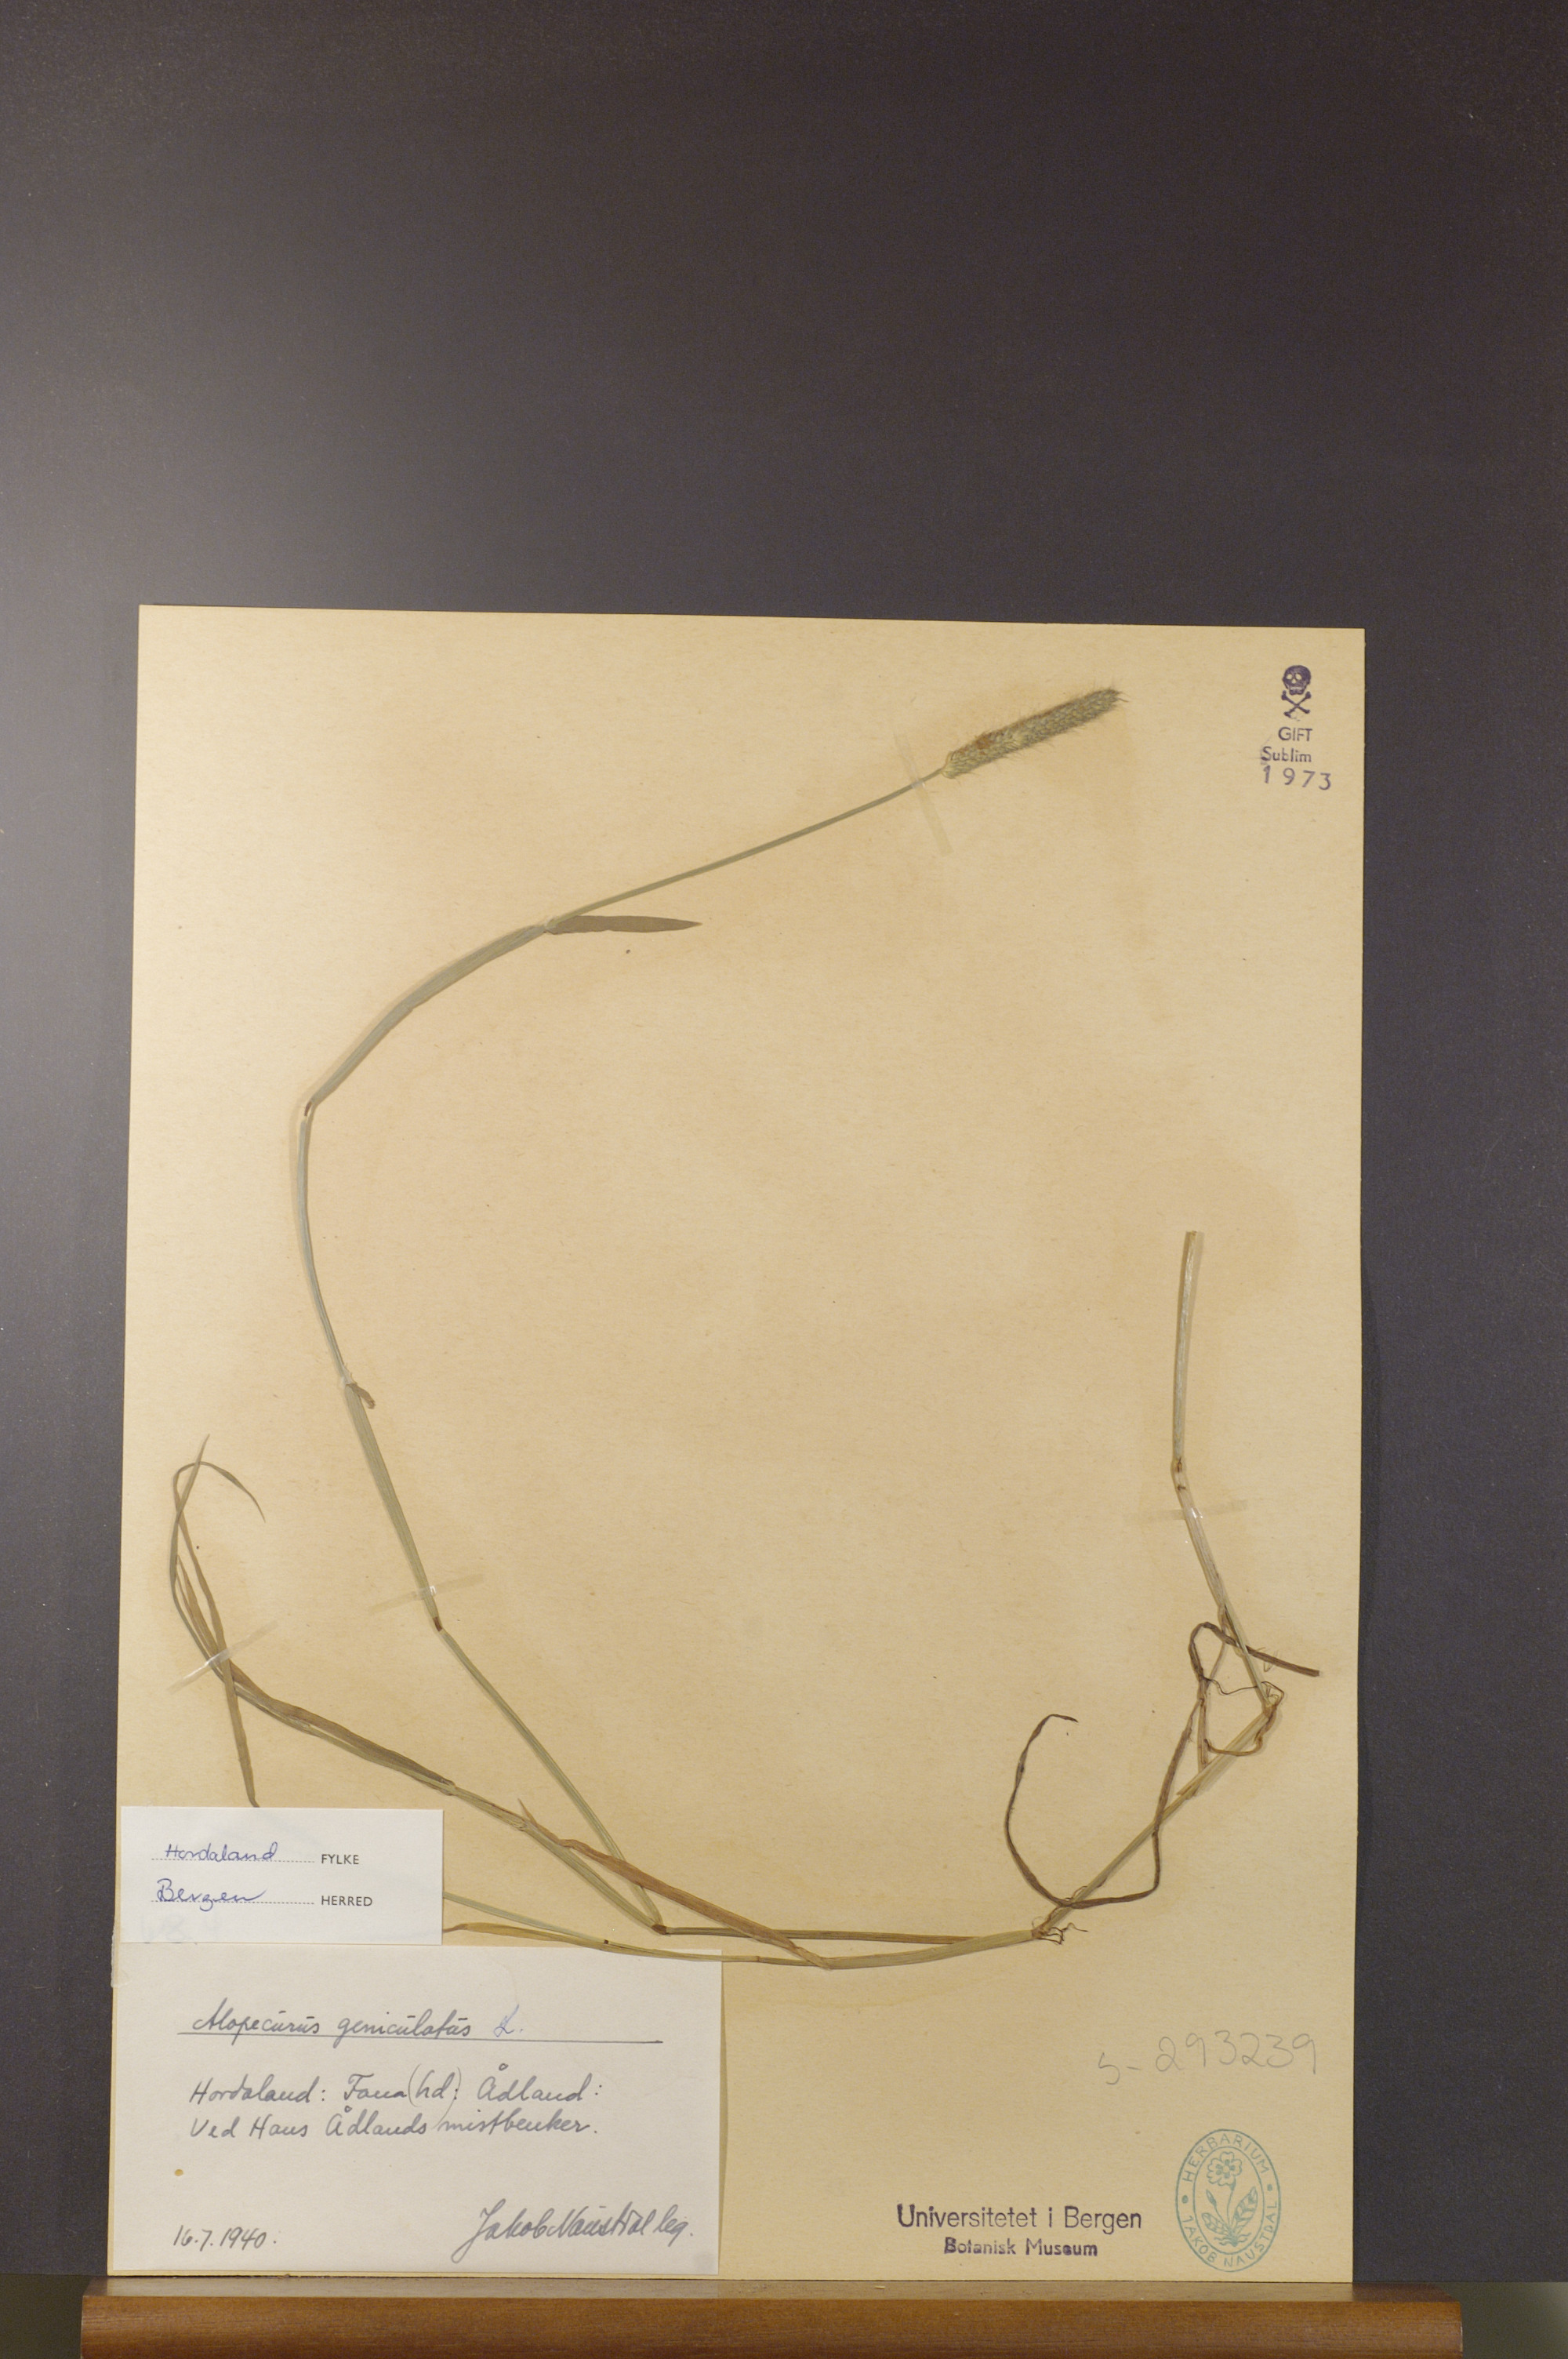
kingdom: Plantae
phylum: Tracheophyta
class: Liliopsida
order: Poales
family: Poaceae
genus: Alopecurus
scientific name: Alopecurus geniculatus
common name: Water foxtail
